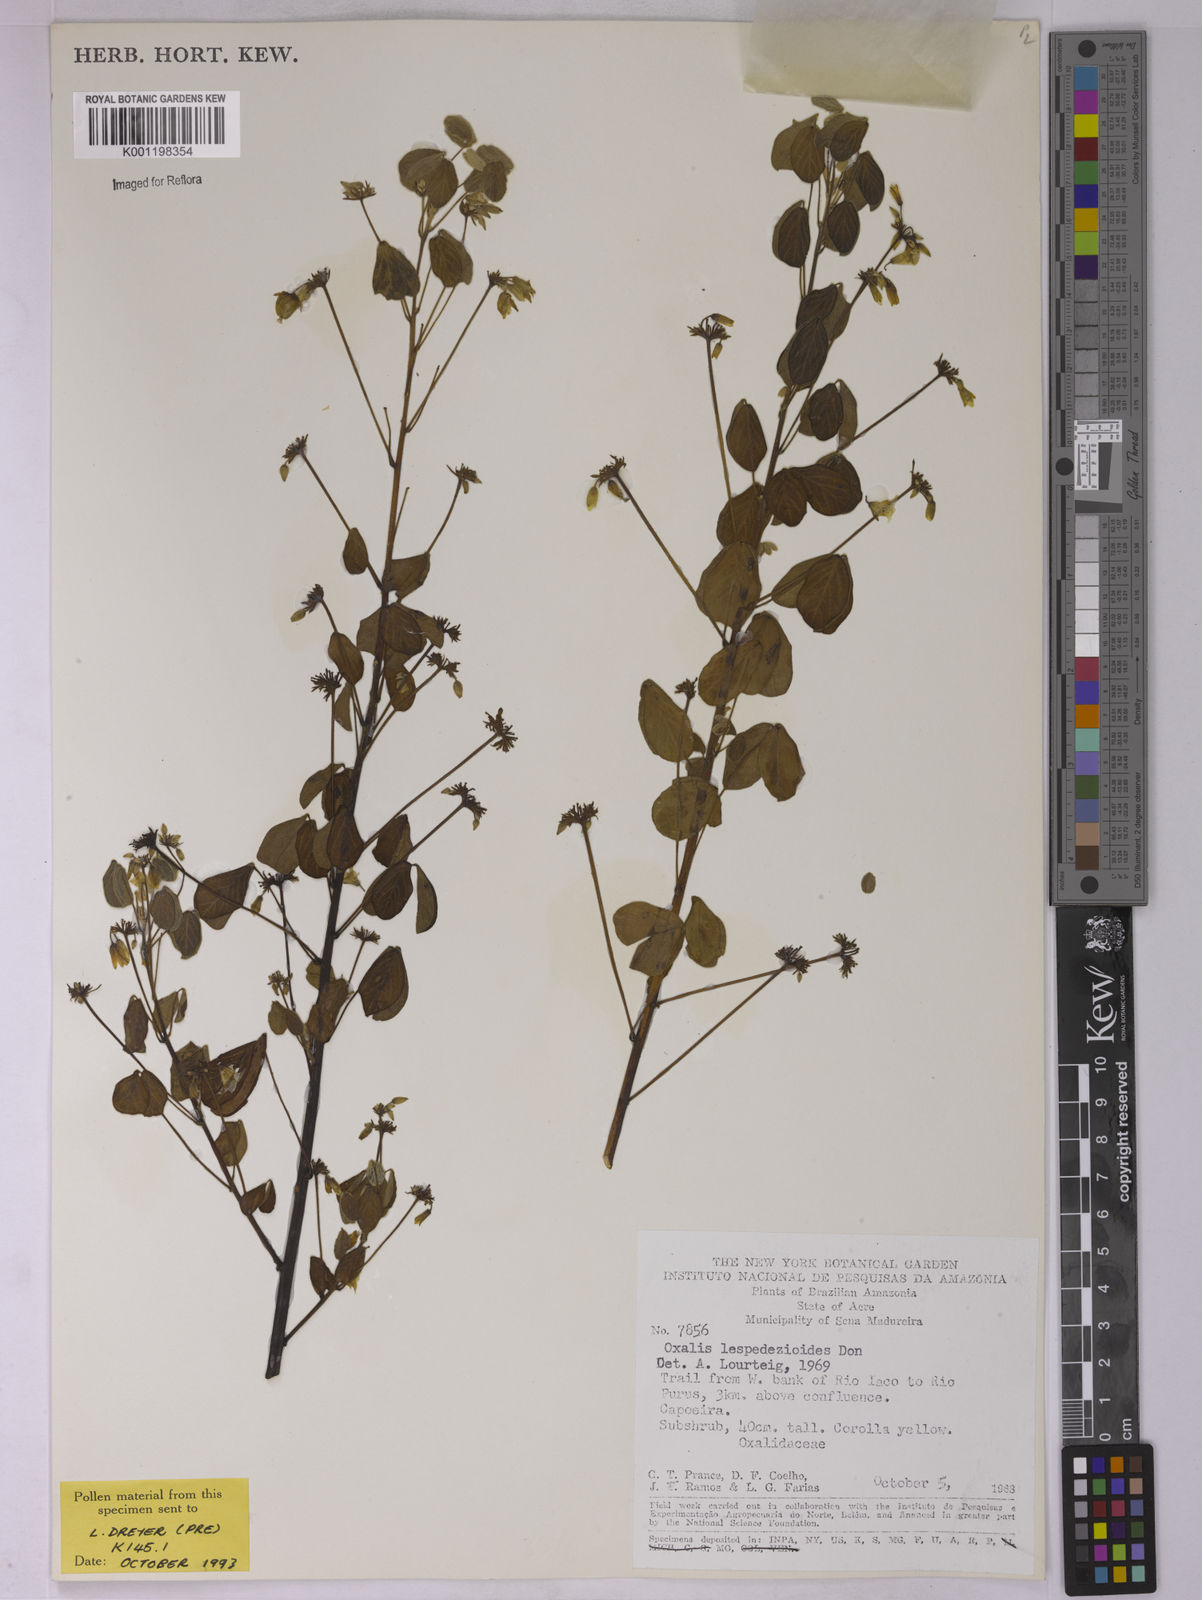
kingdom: Plantae
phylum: Tracheophyta
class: Magnoliopsida
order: Oxalidales
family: Oxalidaceae
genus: Oxalis
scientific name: Oxalis lespedezioides
